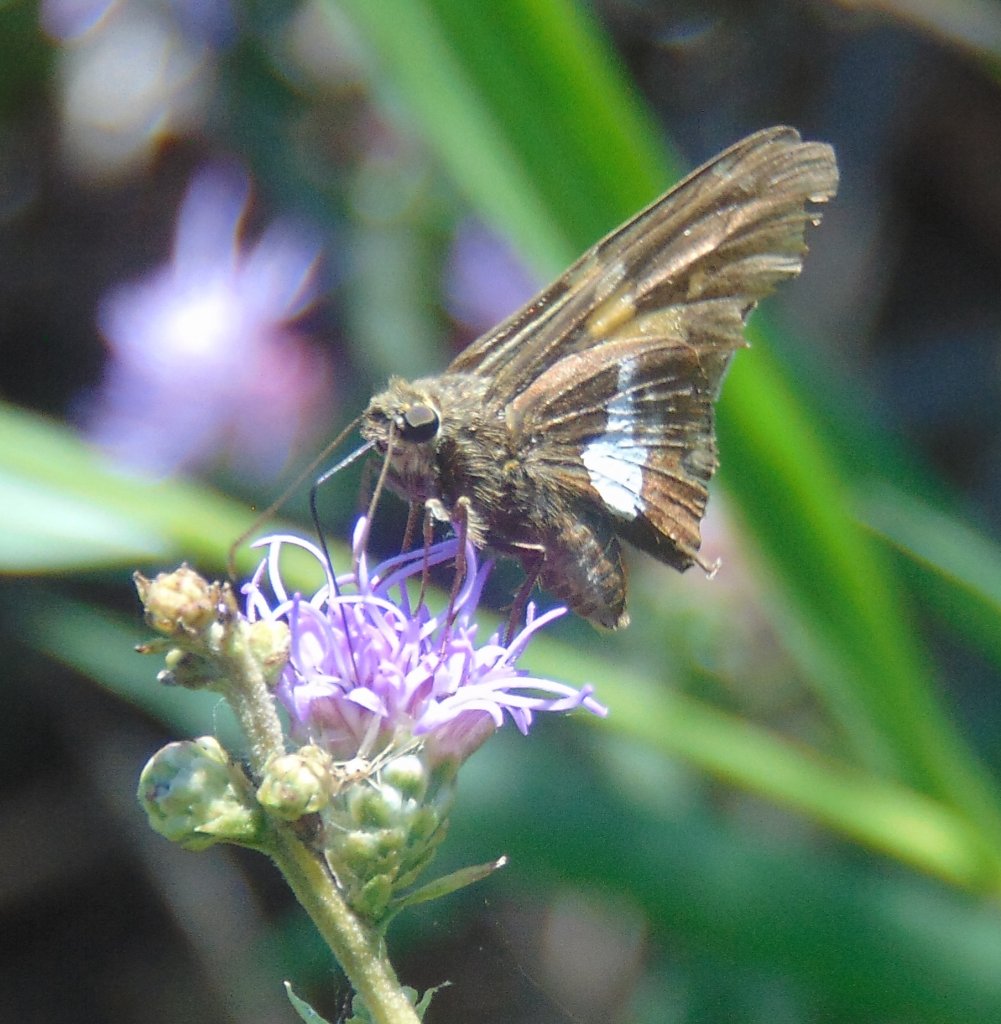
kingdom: Animalia
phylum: Arthropoda
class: Insecta
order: Lepidoptera
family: Hesperiidae
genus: Epargyreus
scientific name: Epargyreus clarus
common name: Silver-spotted Skipper
